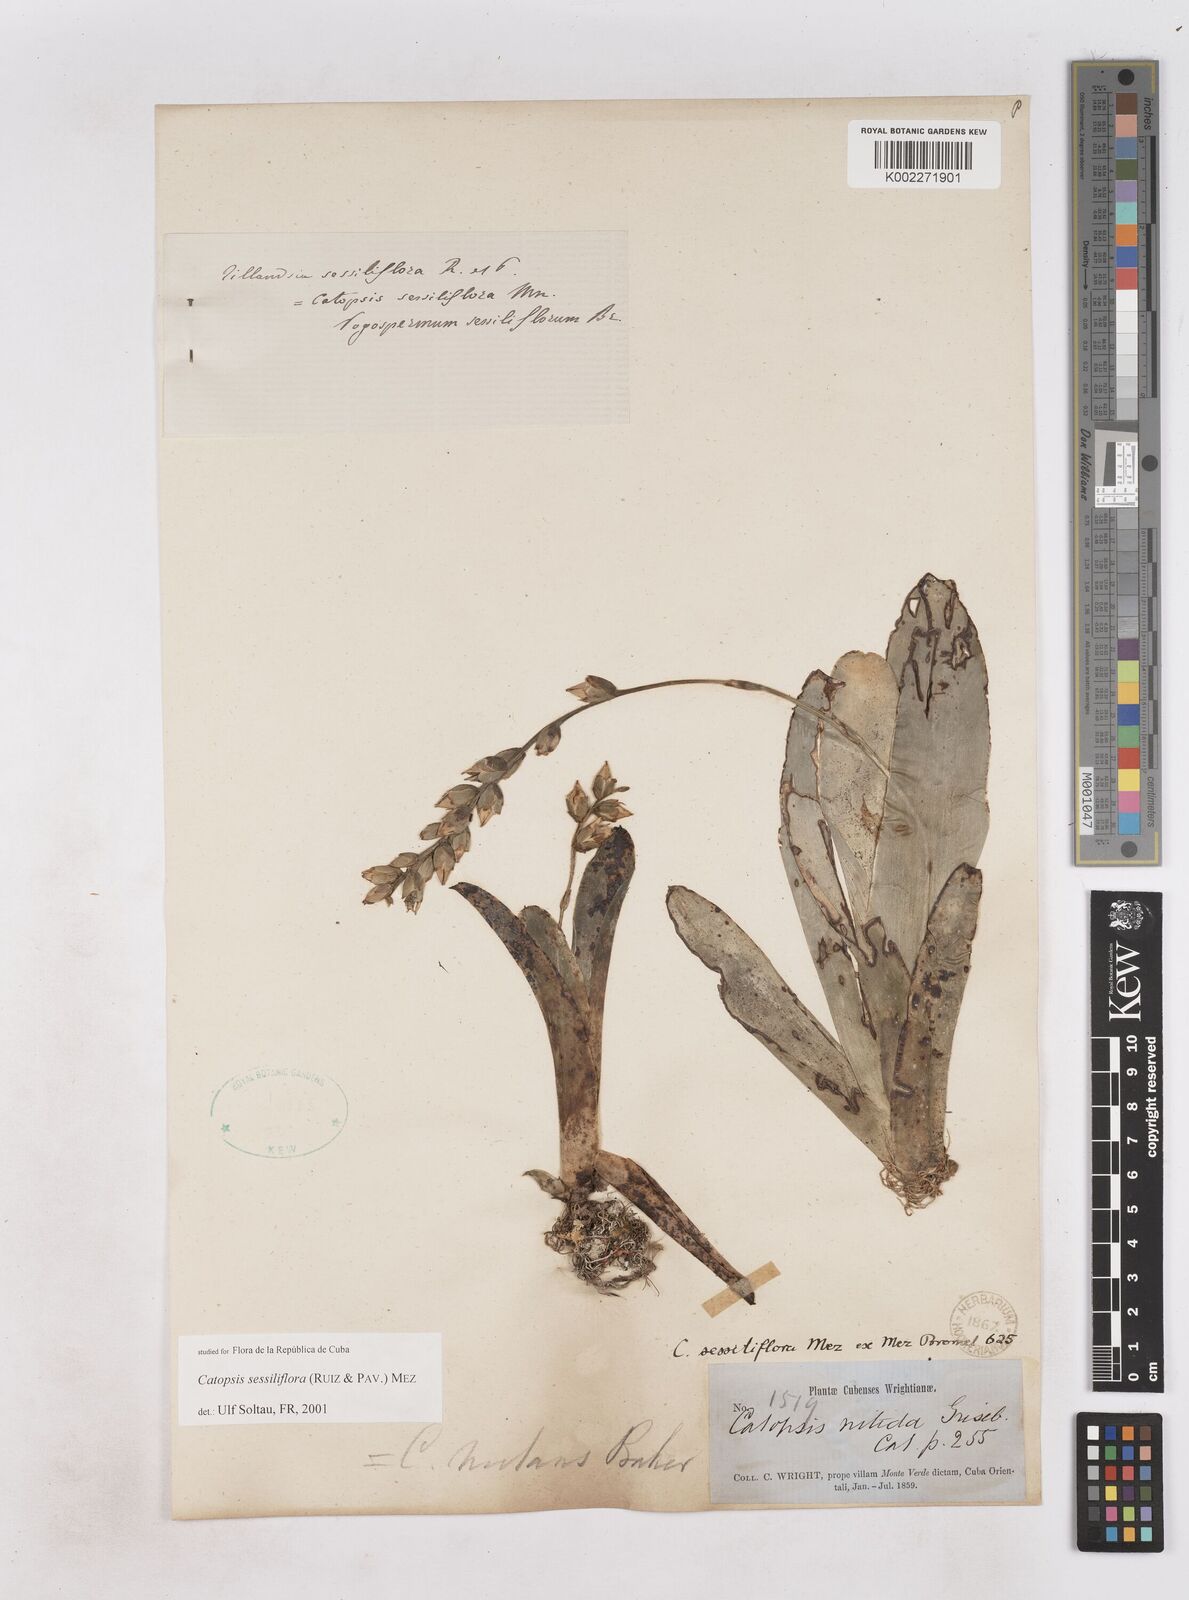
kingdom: Plantae
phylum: Tracheophyta
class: Liliopsida
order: Poales
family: Bromeliaceae
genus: Catopsis
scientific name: Catopsis sessiliflora
